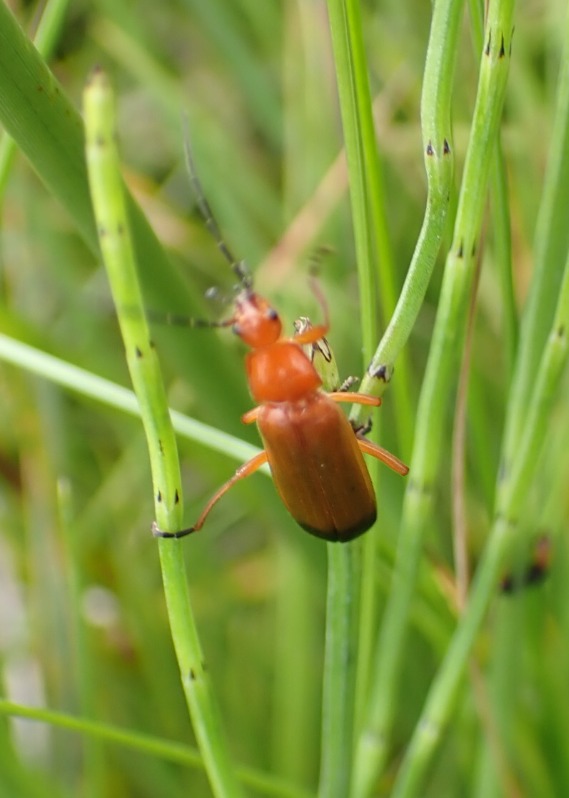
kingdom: Animalia
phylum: Arthropoda
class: Insecta
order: Coleoptera
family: Cantharidae
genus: Rhagonycha
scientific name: Rhagonycha fulva
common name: Præstebille
